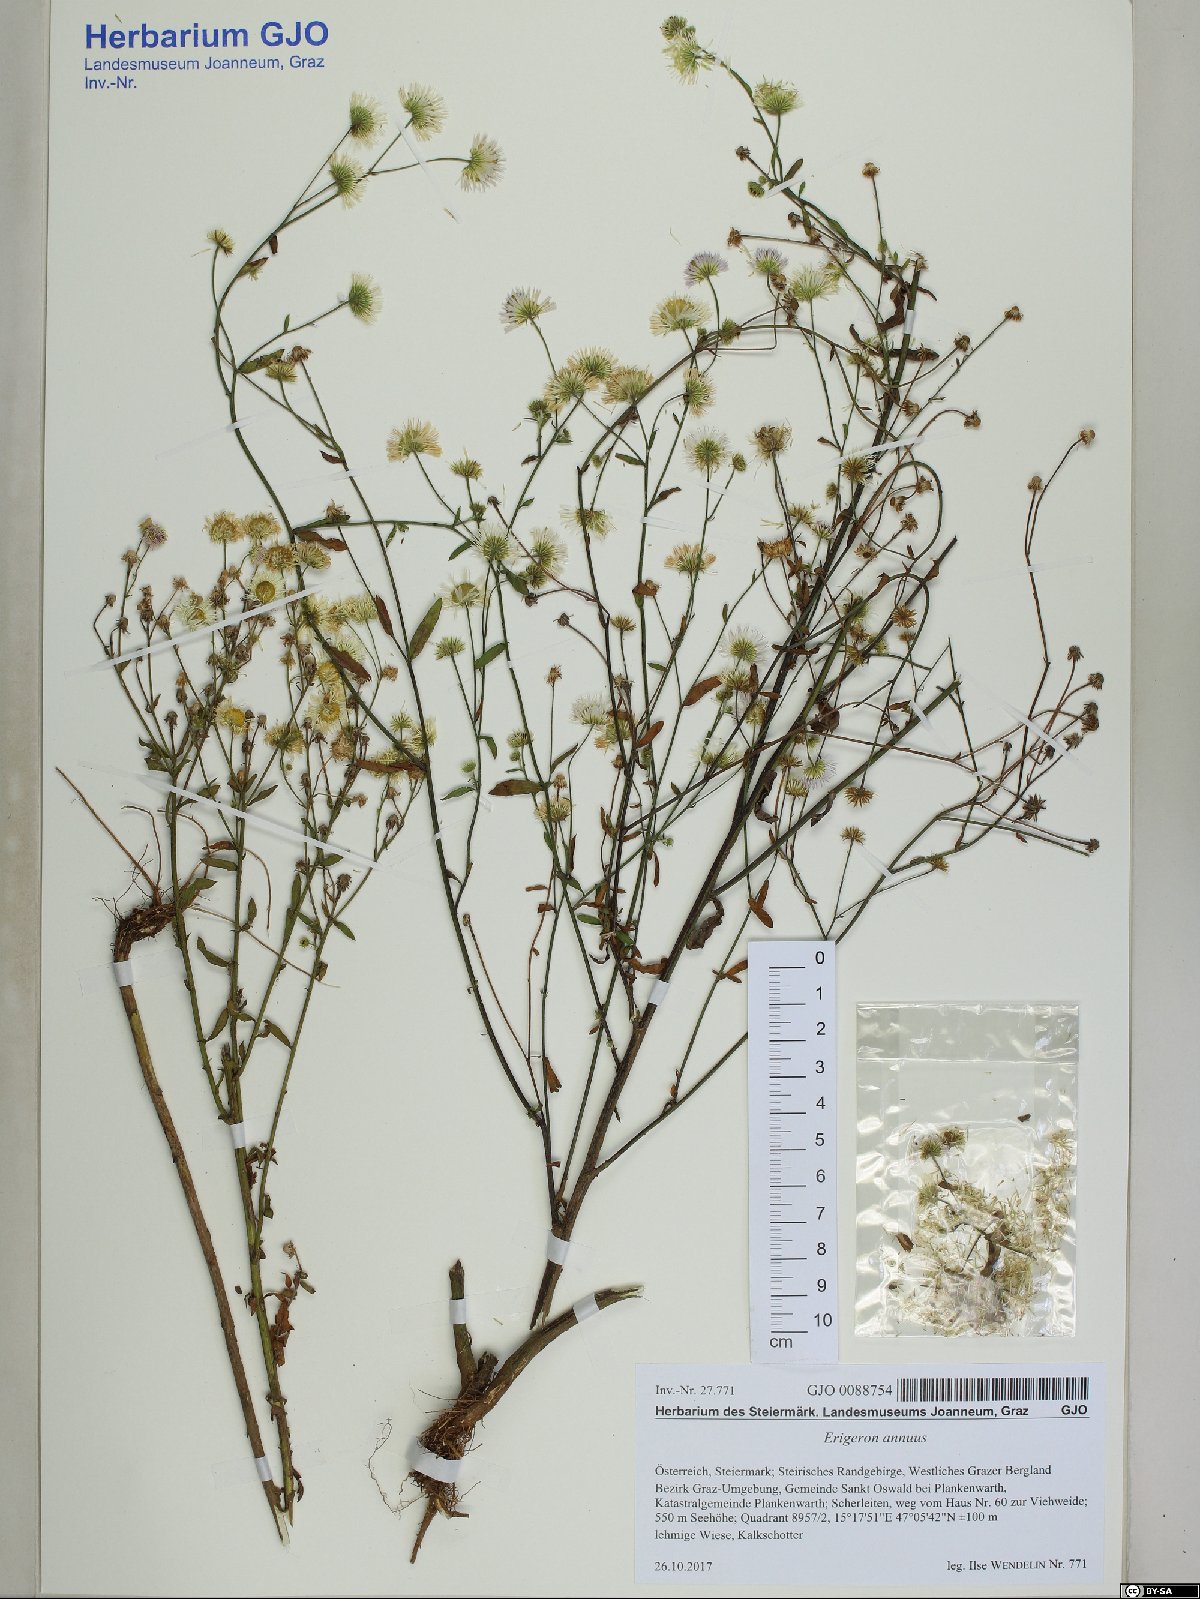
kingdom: Plantae
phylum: Tracheophyta
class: Magnoliopsida
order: Asterales
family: Asteraceae
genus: Erigeron
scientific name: Erigeron annuus
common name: Tall fleabane
